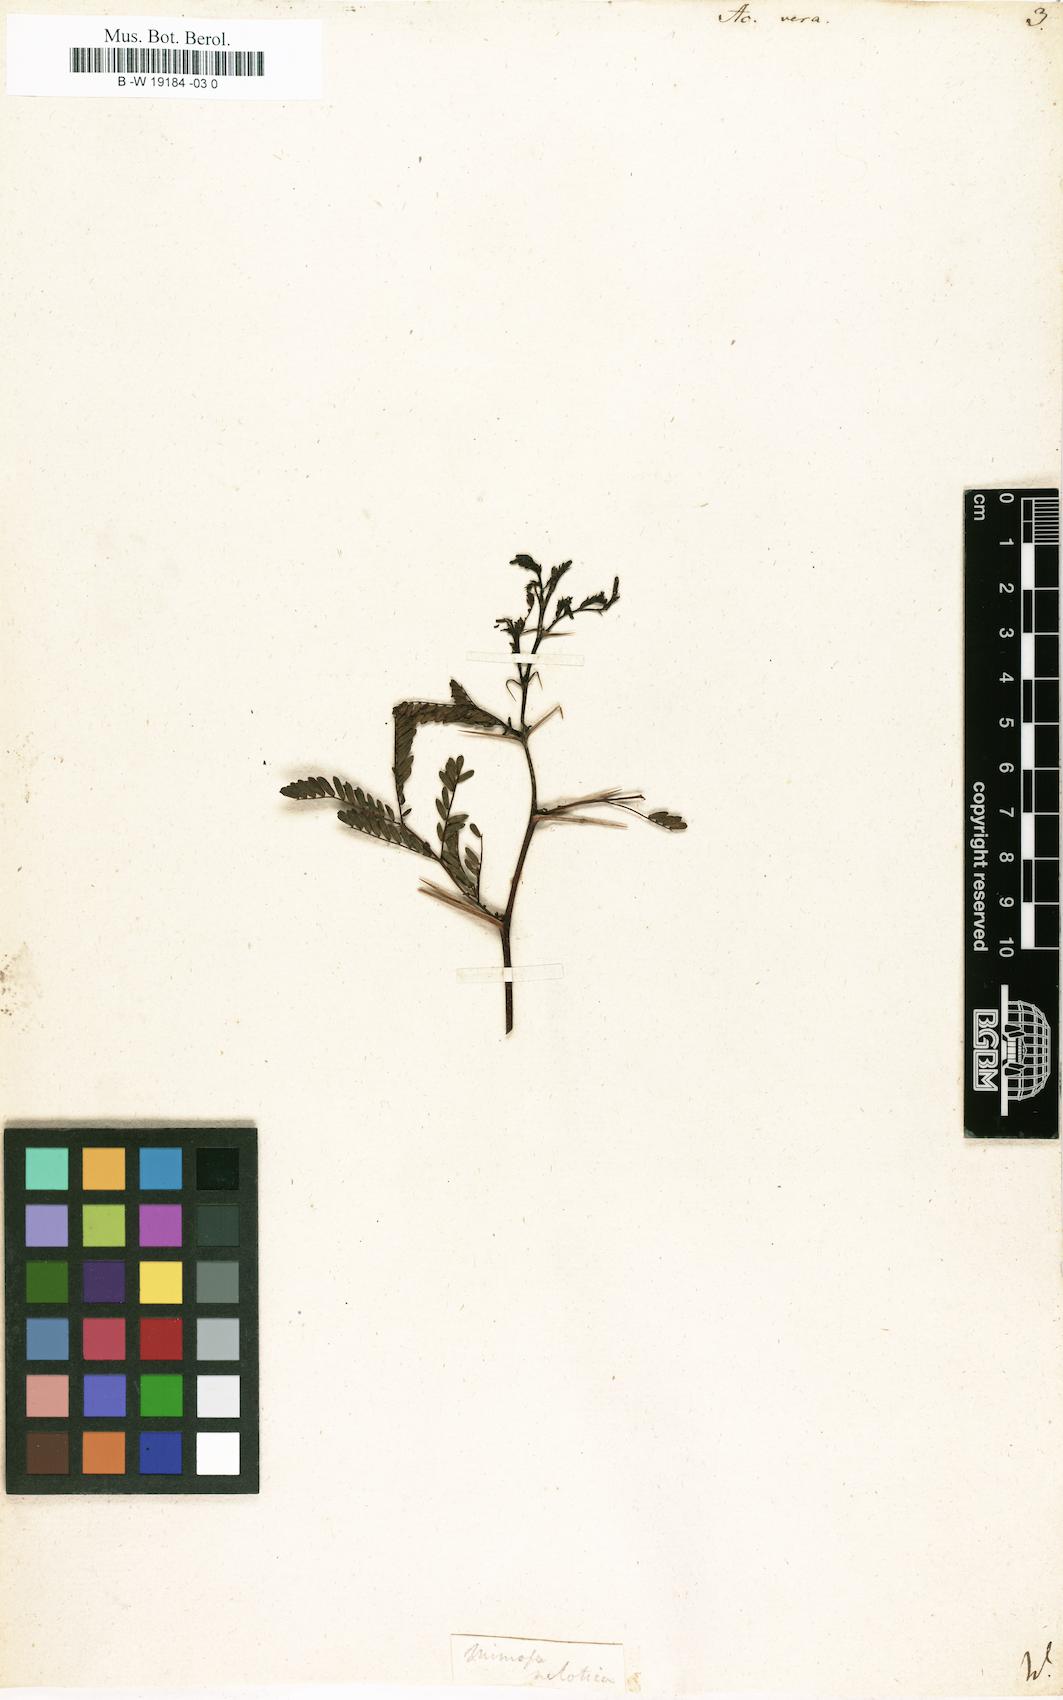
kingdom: Plantae
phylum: Tracheophyta
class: Magnoliopsida
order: Fabales
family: Fabaceae
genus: Vachellia
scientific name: Vachellia nilotica
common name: Arabic gumtree
